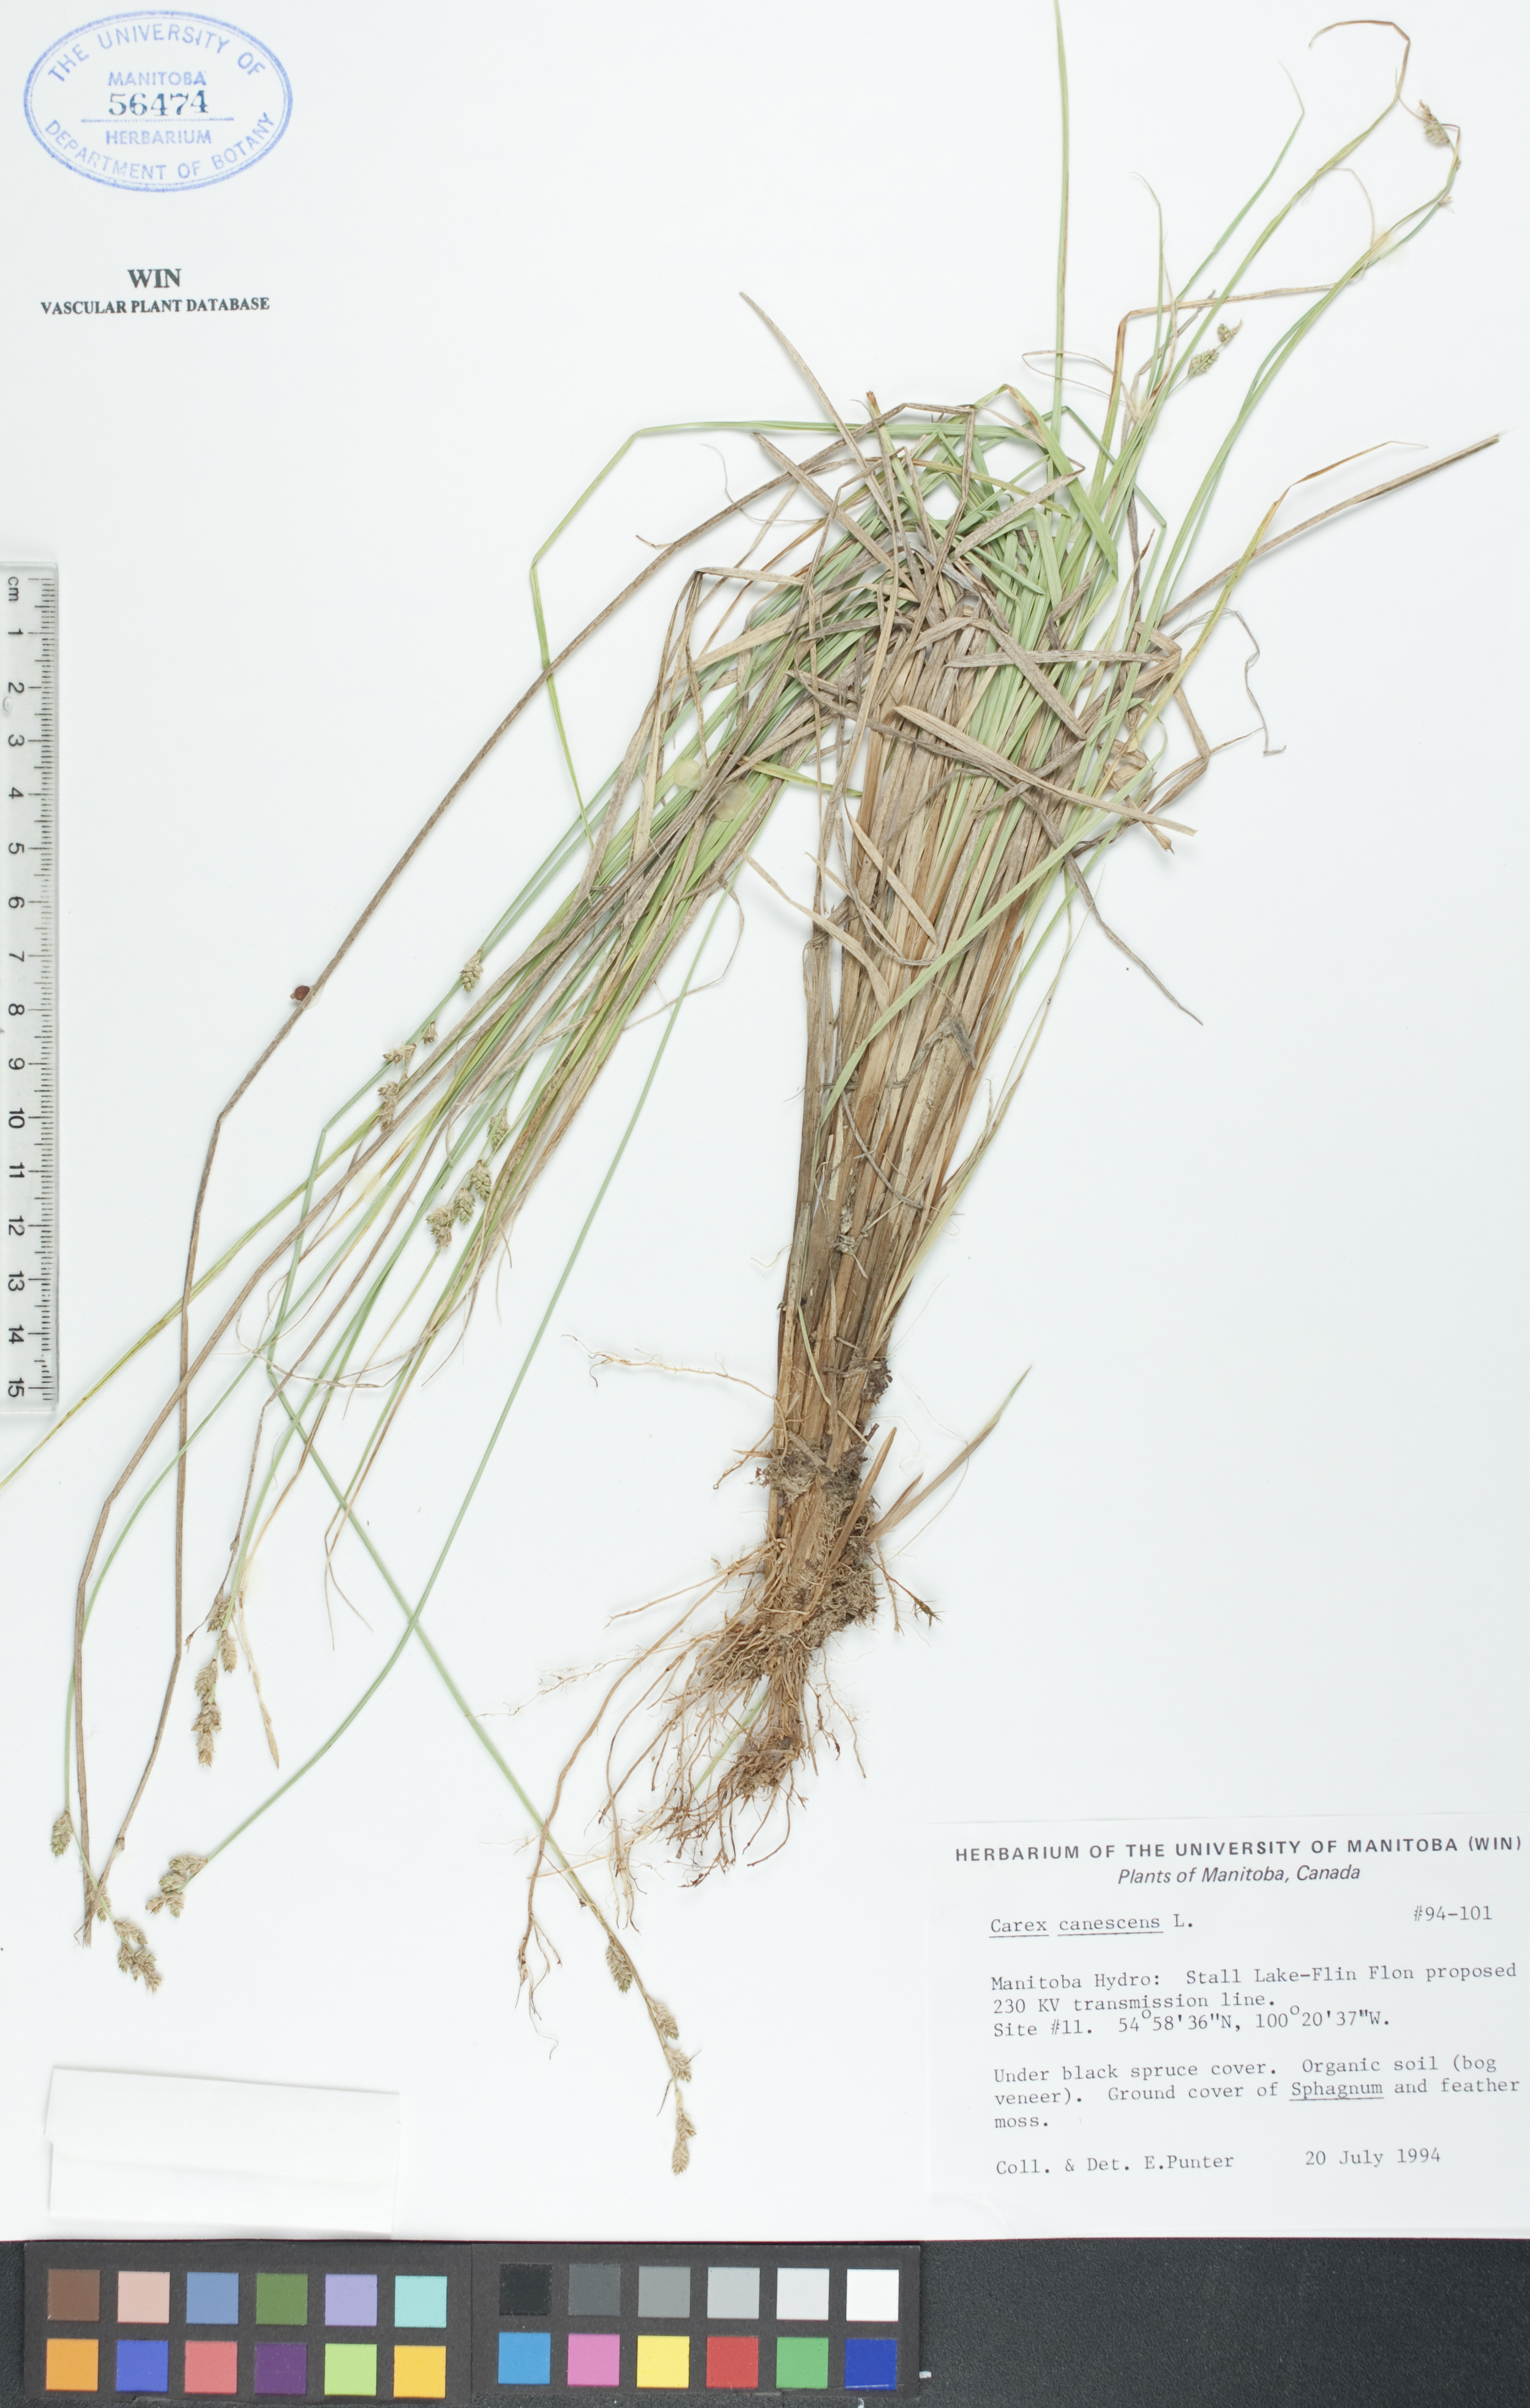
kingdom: Plantae
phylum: Tracheophyta
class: Liliopsida
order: Poales
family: Cyperaceae
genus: Carex
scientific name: Carex canescens
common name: White sedge
